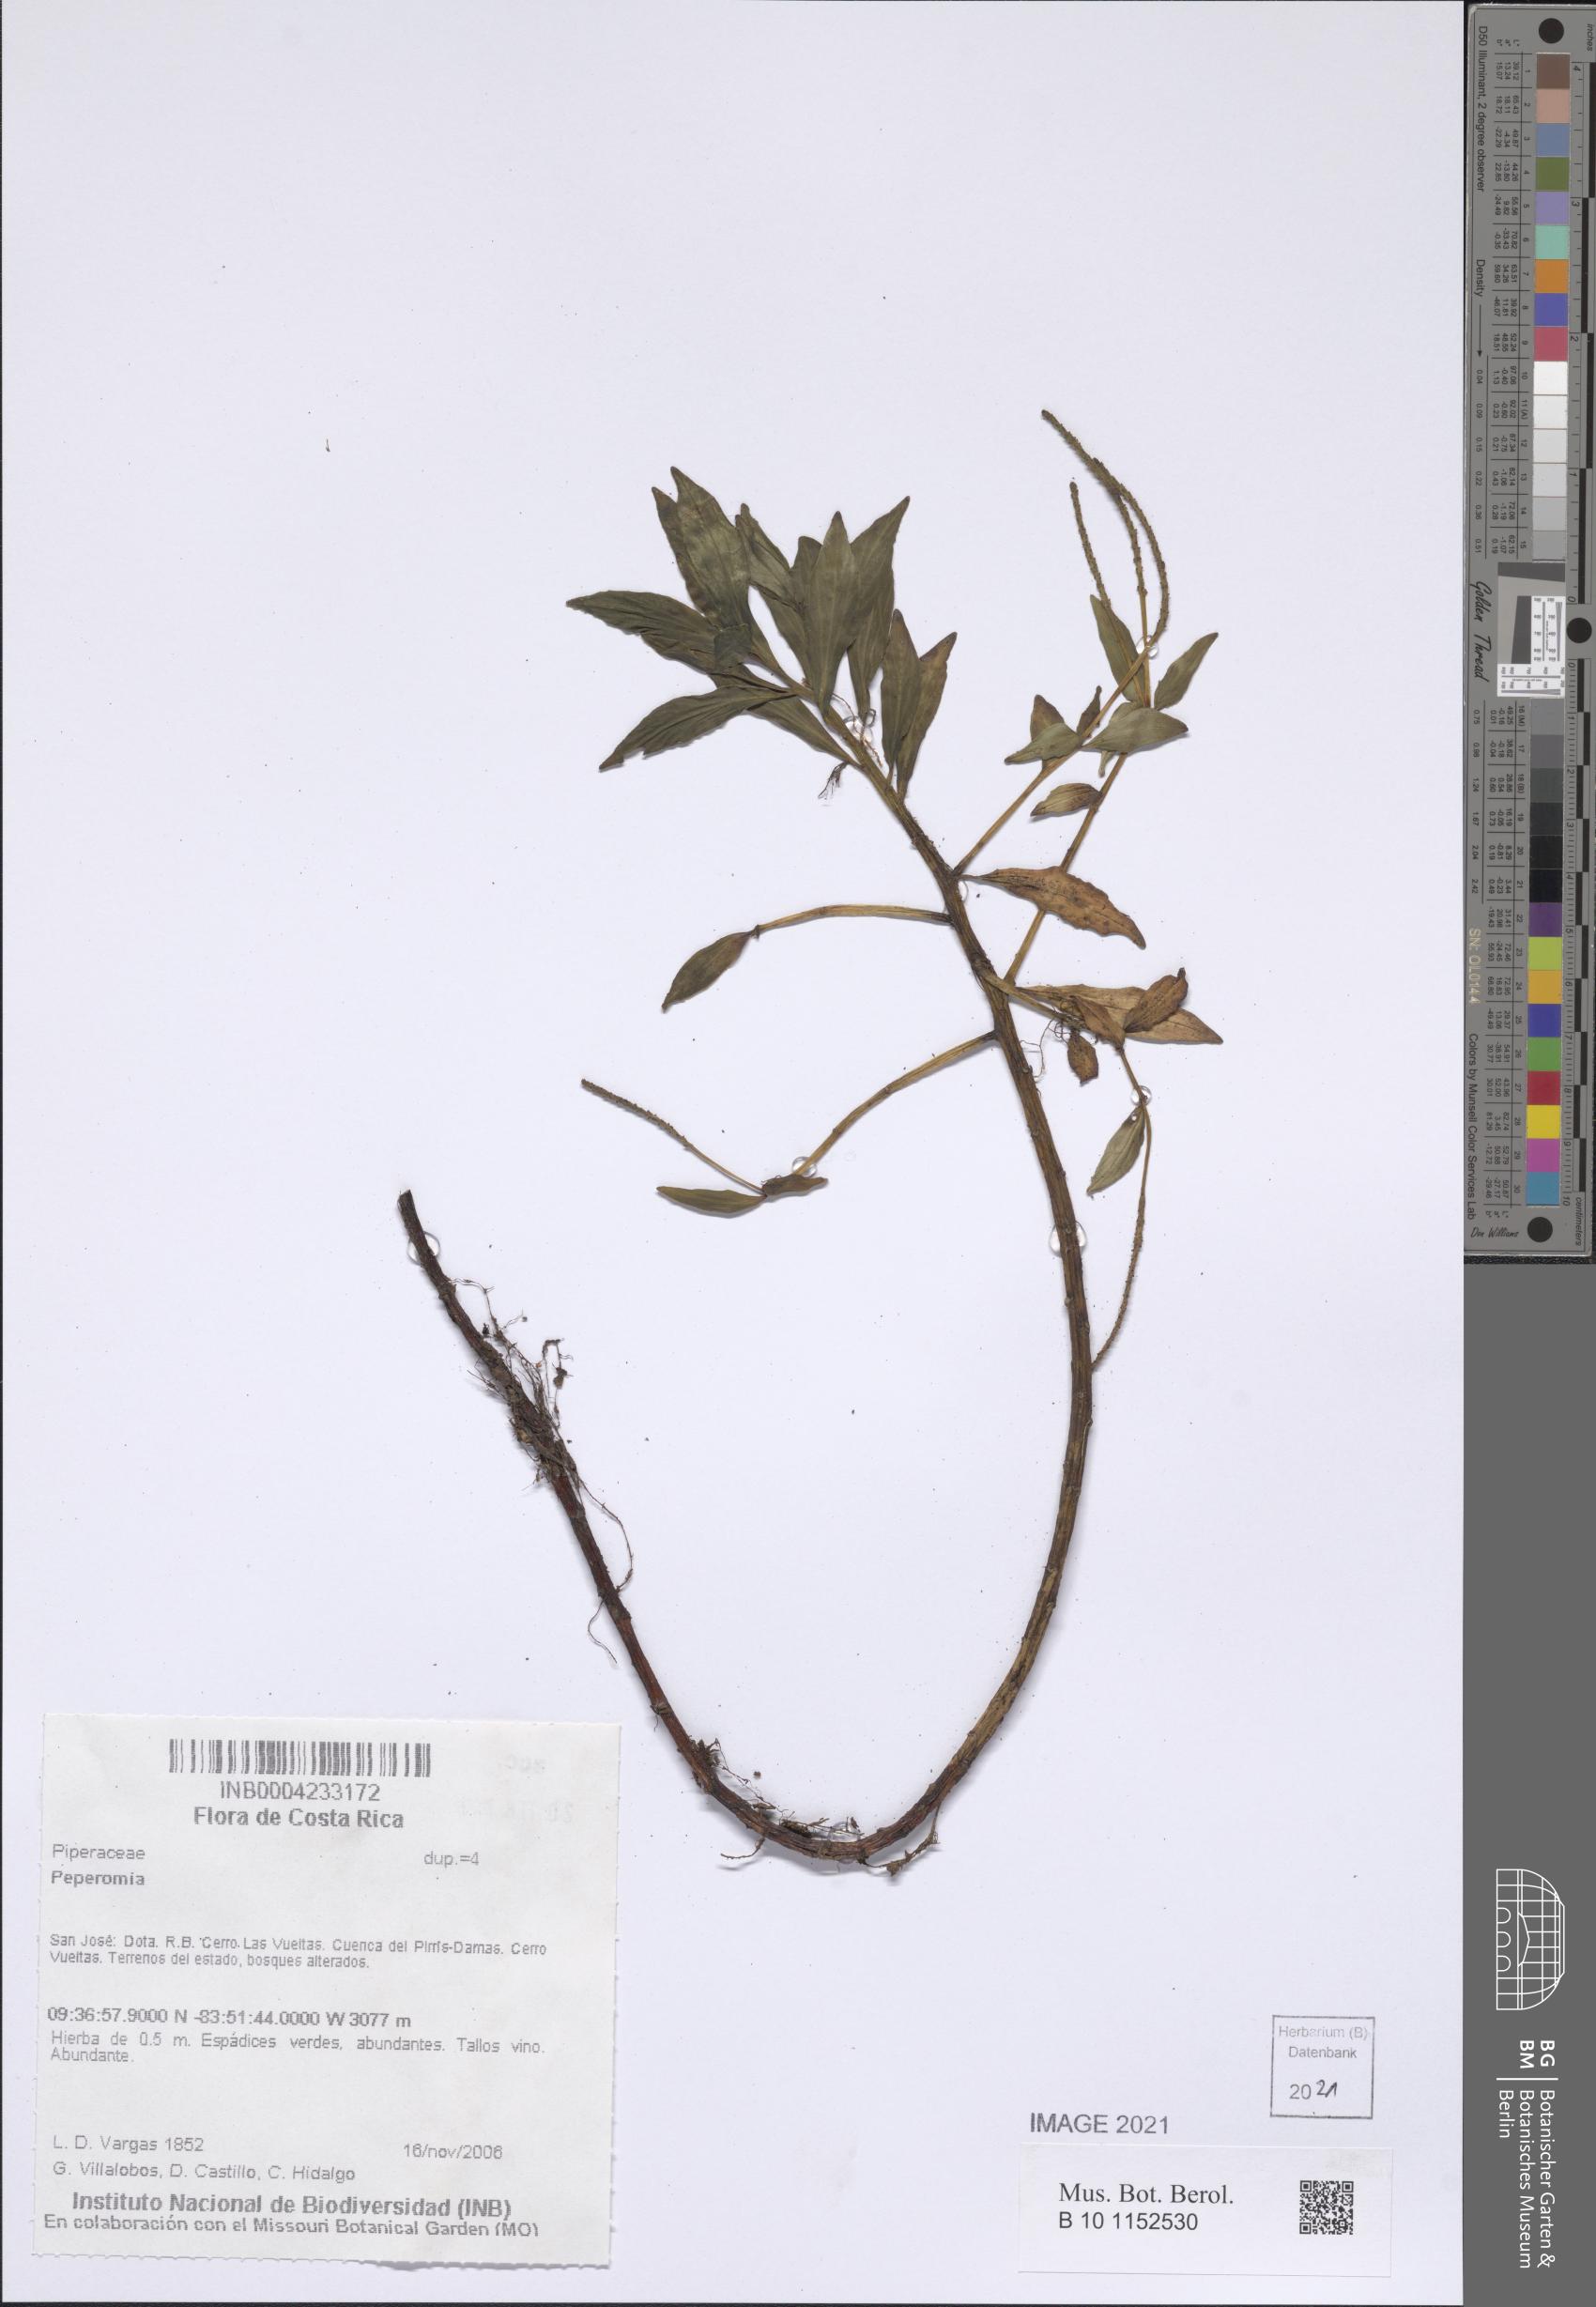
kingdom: Plantae
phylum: Tracheophyta
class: Magnoliopsida
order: Piperales
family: Piperaceae
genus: Peperomia
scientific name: Peperomia
